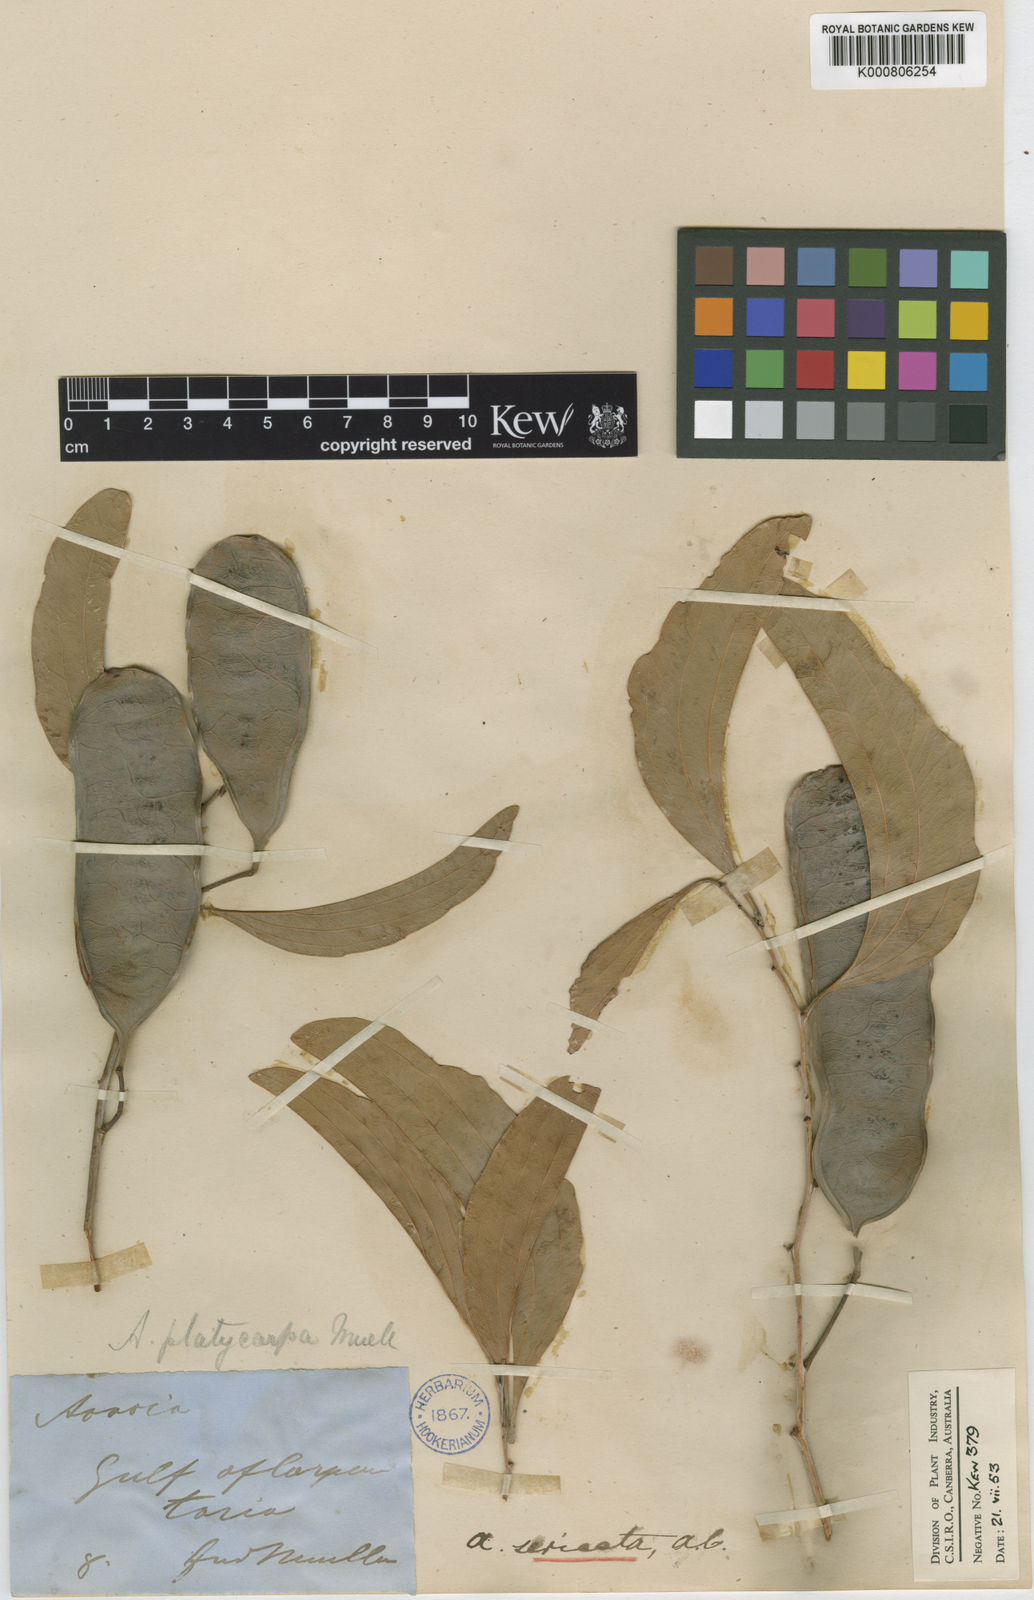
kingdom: Plantae
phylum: Tracheophyta
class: Magnoliopsida
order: Fabales
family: Fabaceae
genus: Acacia
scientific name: Acacia platycarpa
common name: Ghost wattle
